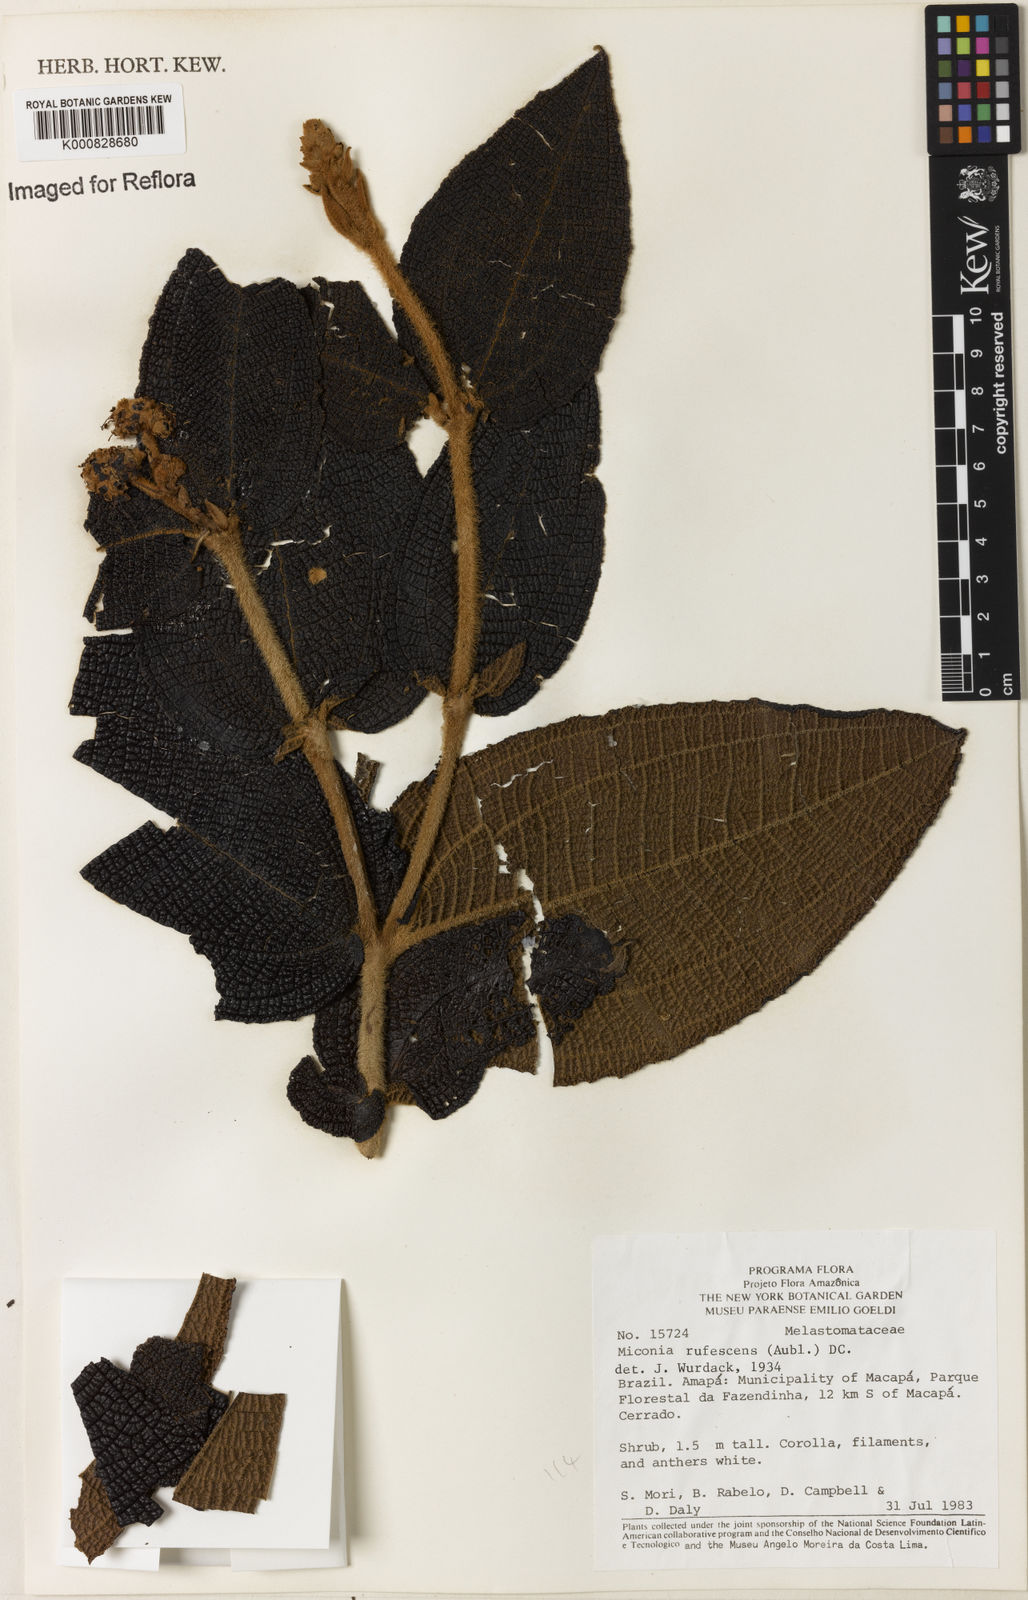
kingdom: Plantae
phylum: Tracheophyta
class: Magnoliopsida
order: Myrtales
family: Melastomataceae
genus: Miconia
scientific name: Miconia rufescens
